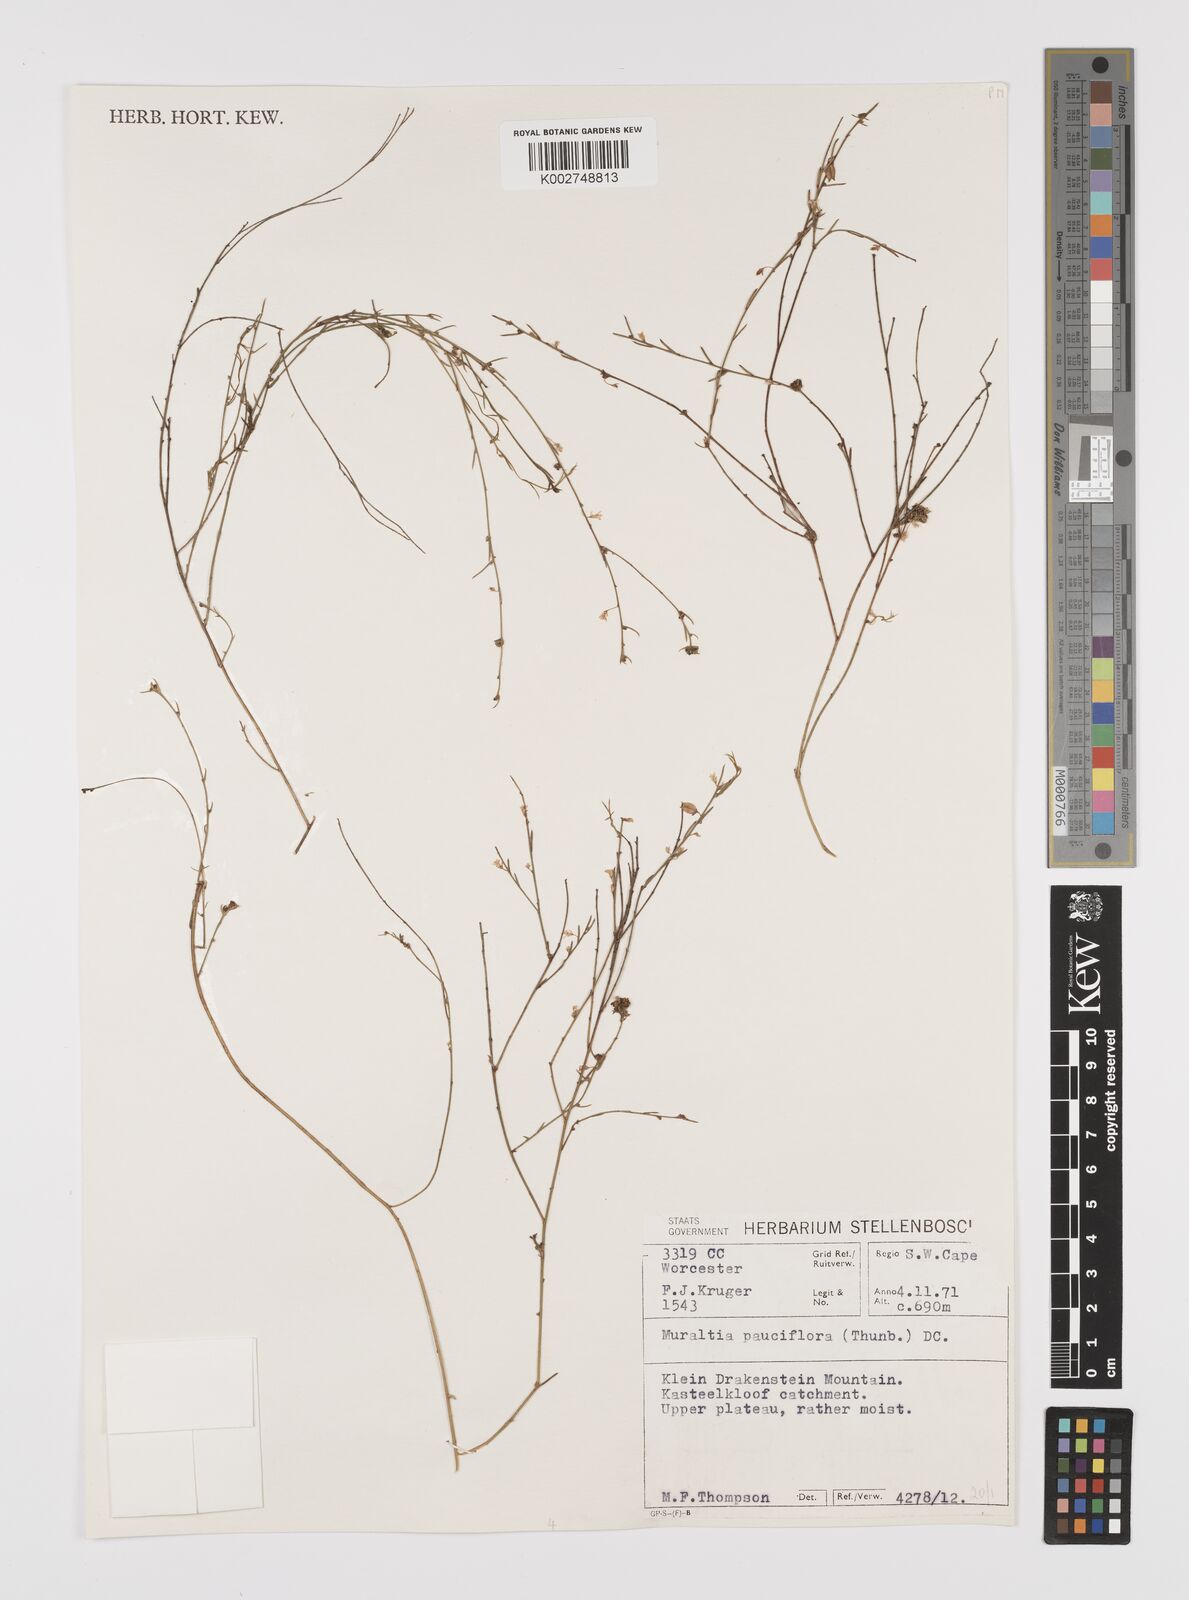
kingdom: Plantae
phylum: Tracheophyta
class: Magnoliopsida
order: Fabales
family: Polygalaceae
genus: Muraltia
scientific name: Muraltia pauciflora
